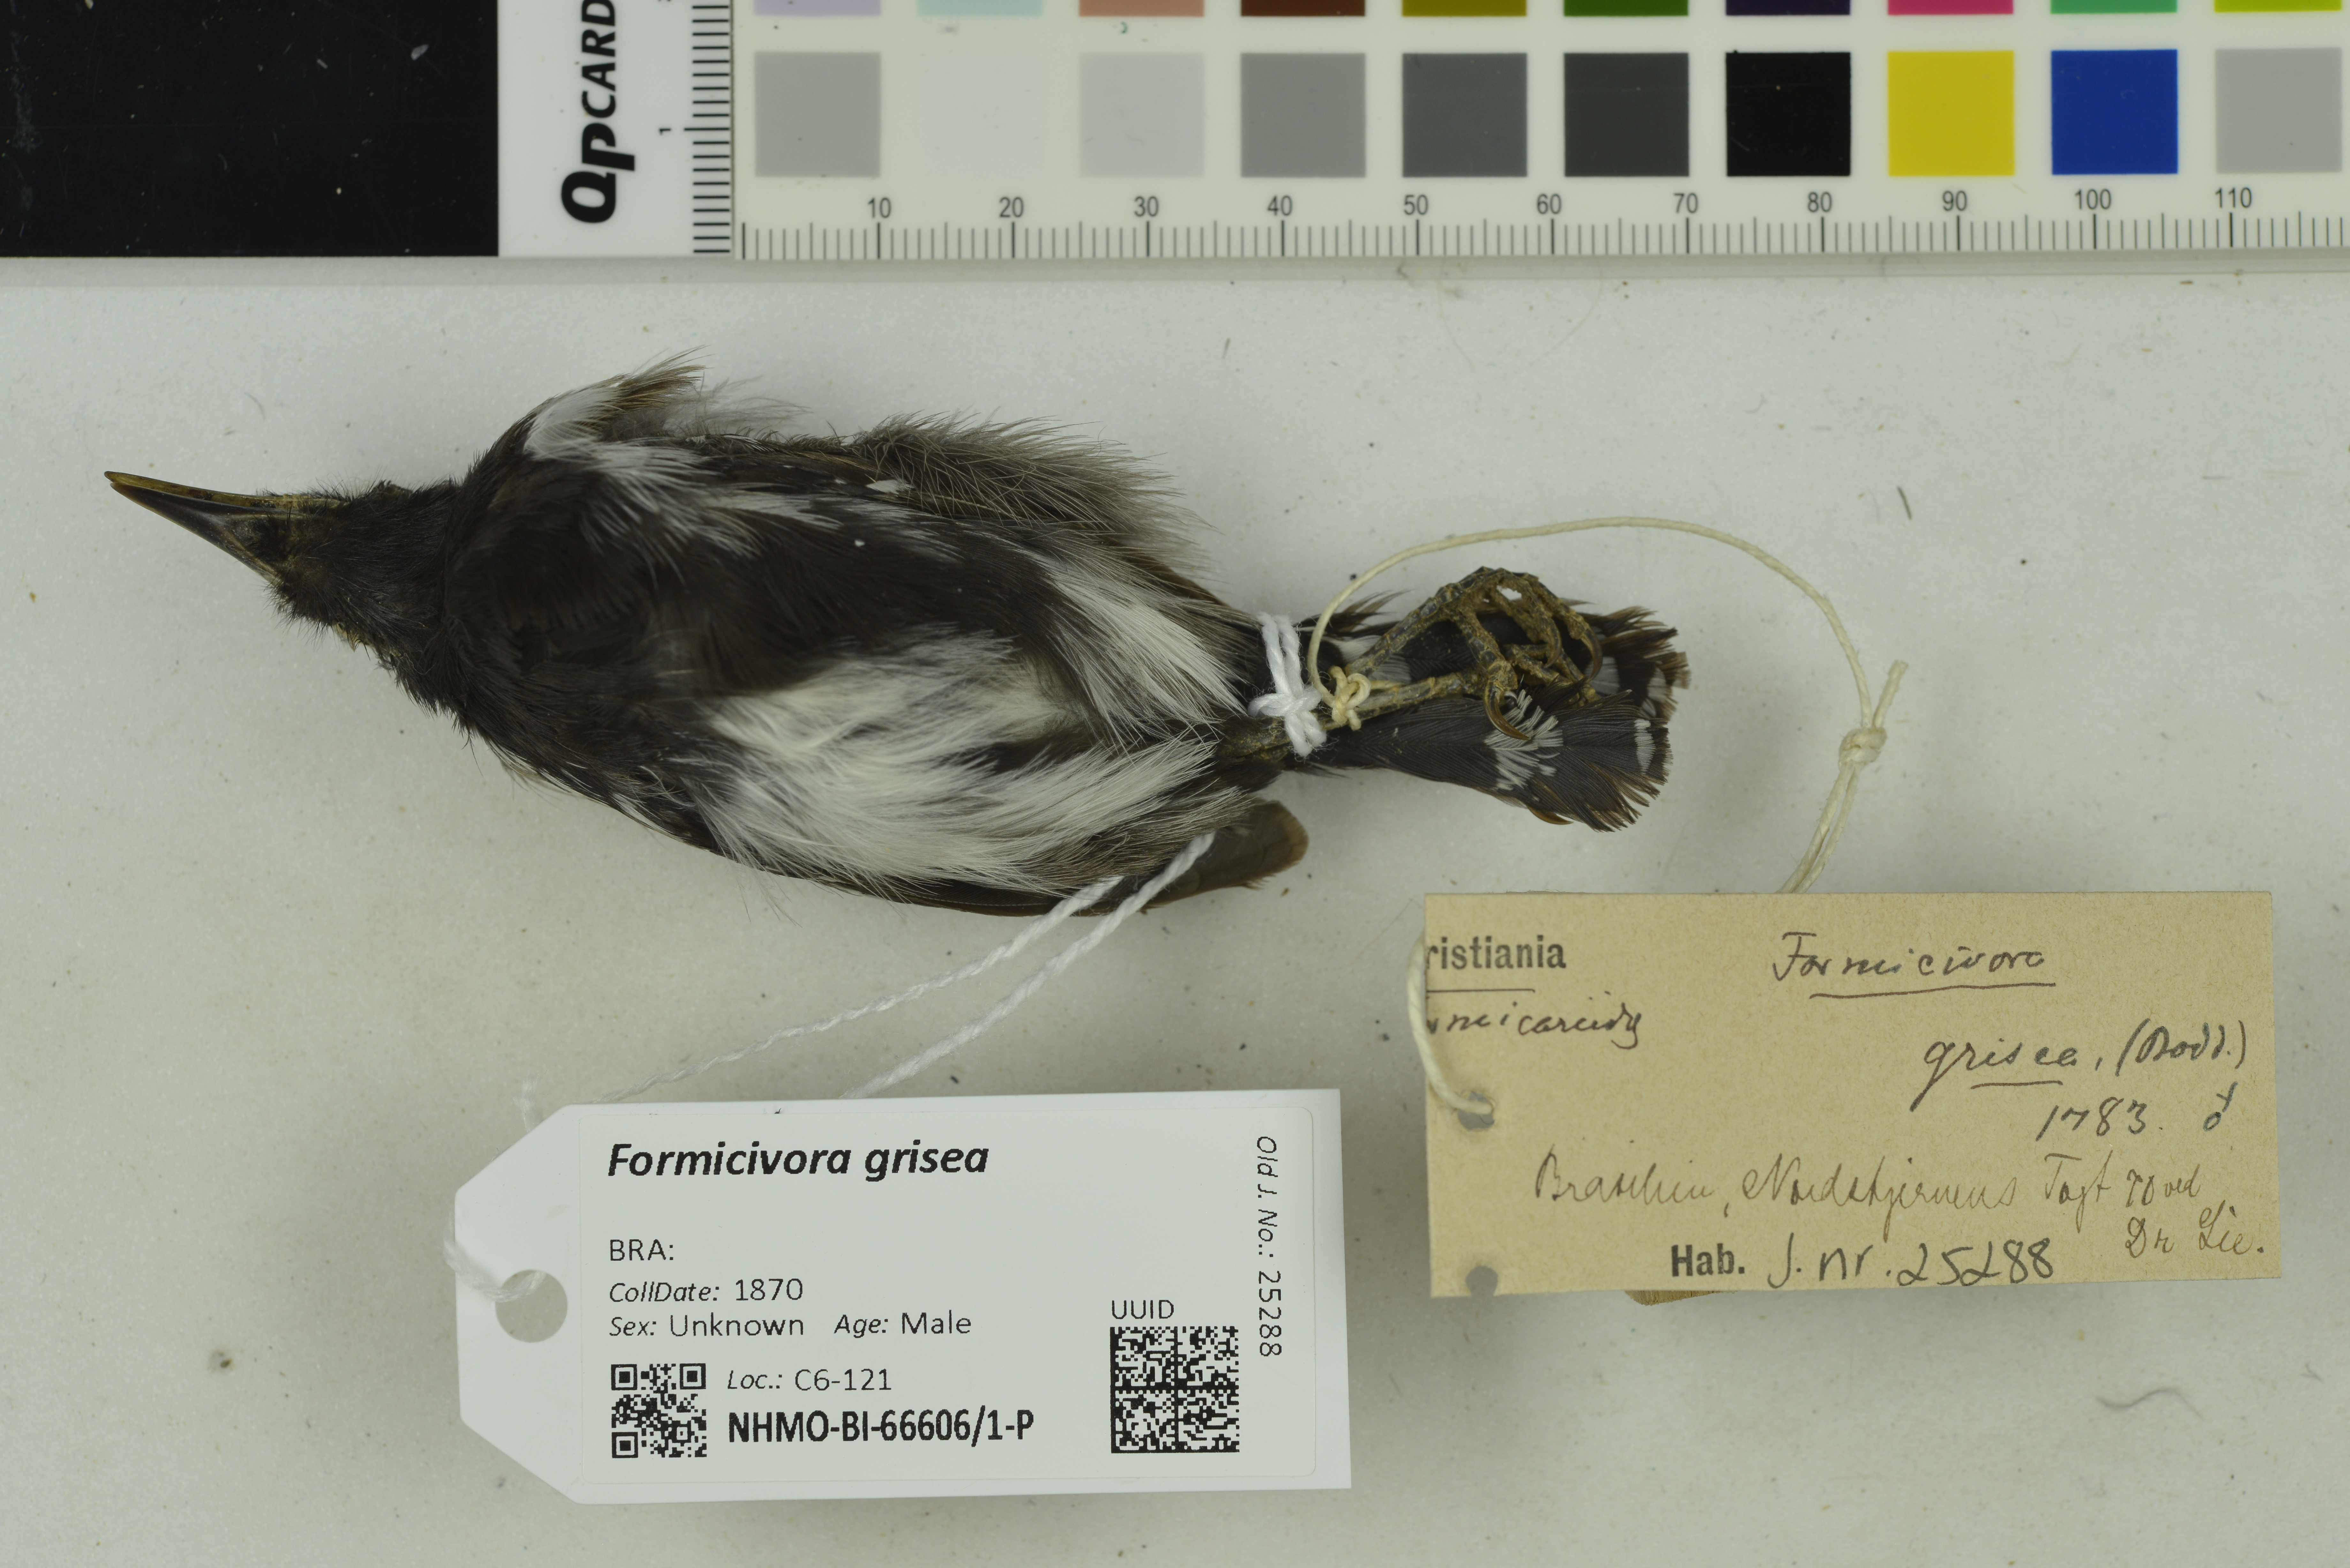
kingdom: Animalia
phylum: Chordata
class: Aves
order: Passeriformes
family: Thamnophilidae
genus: Formicivora
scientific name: Formicivora grisea
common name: Southern white-fringed antwren
